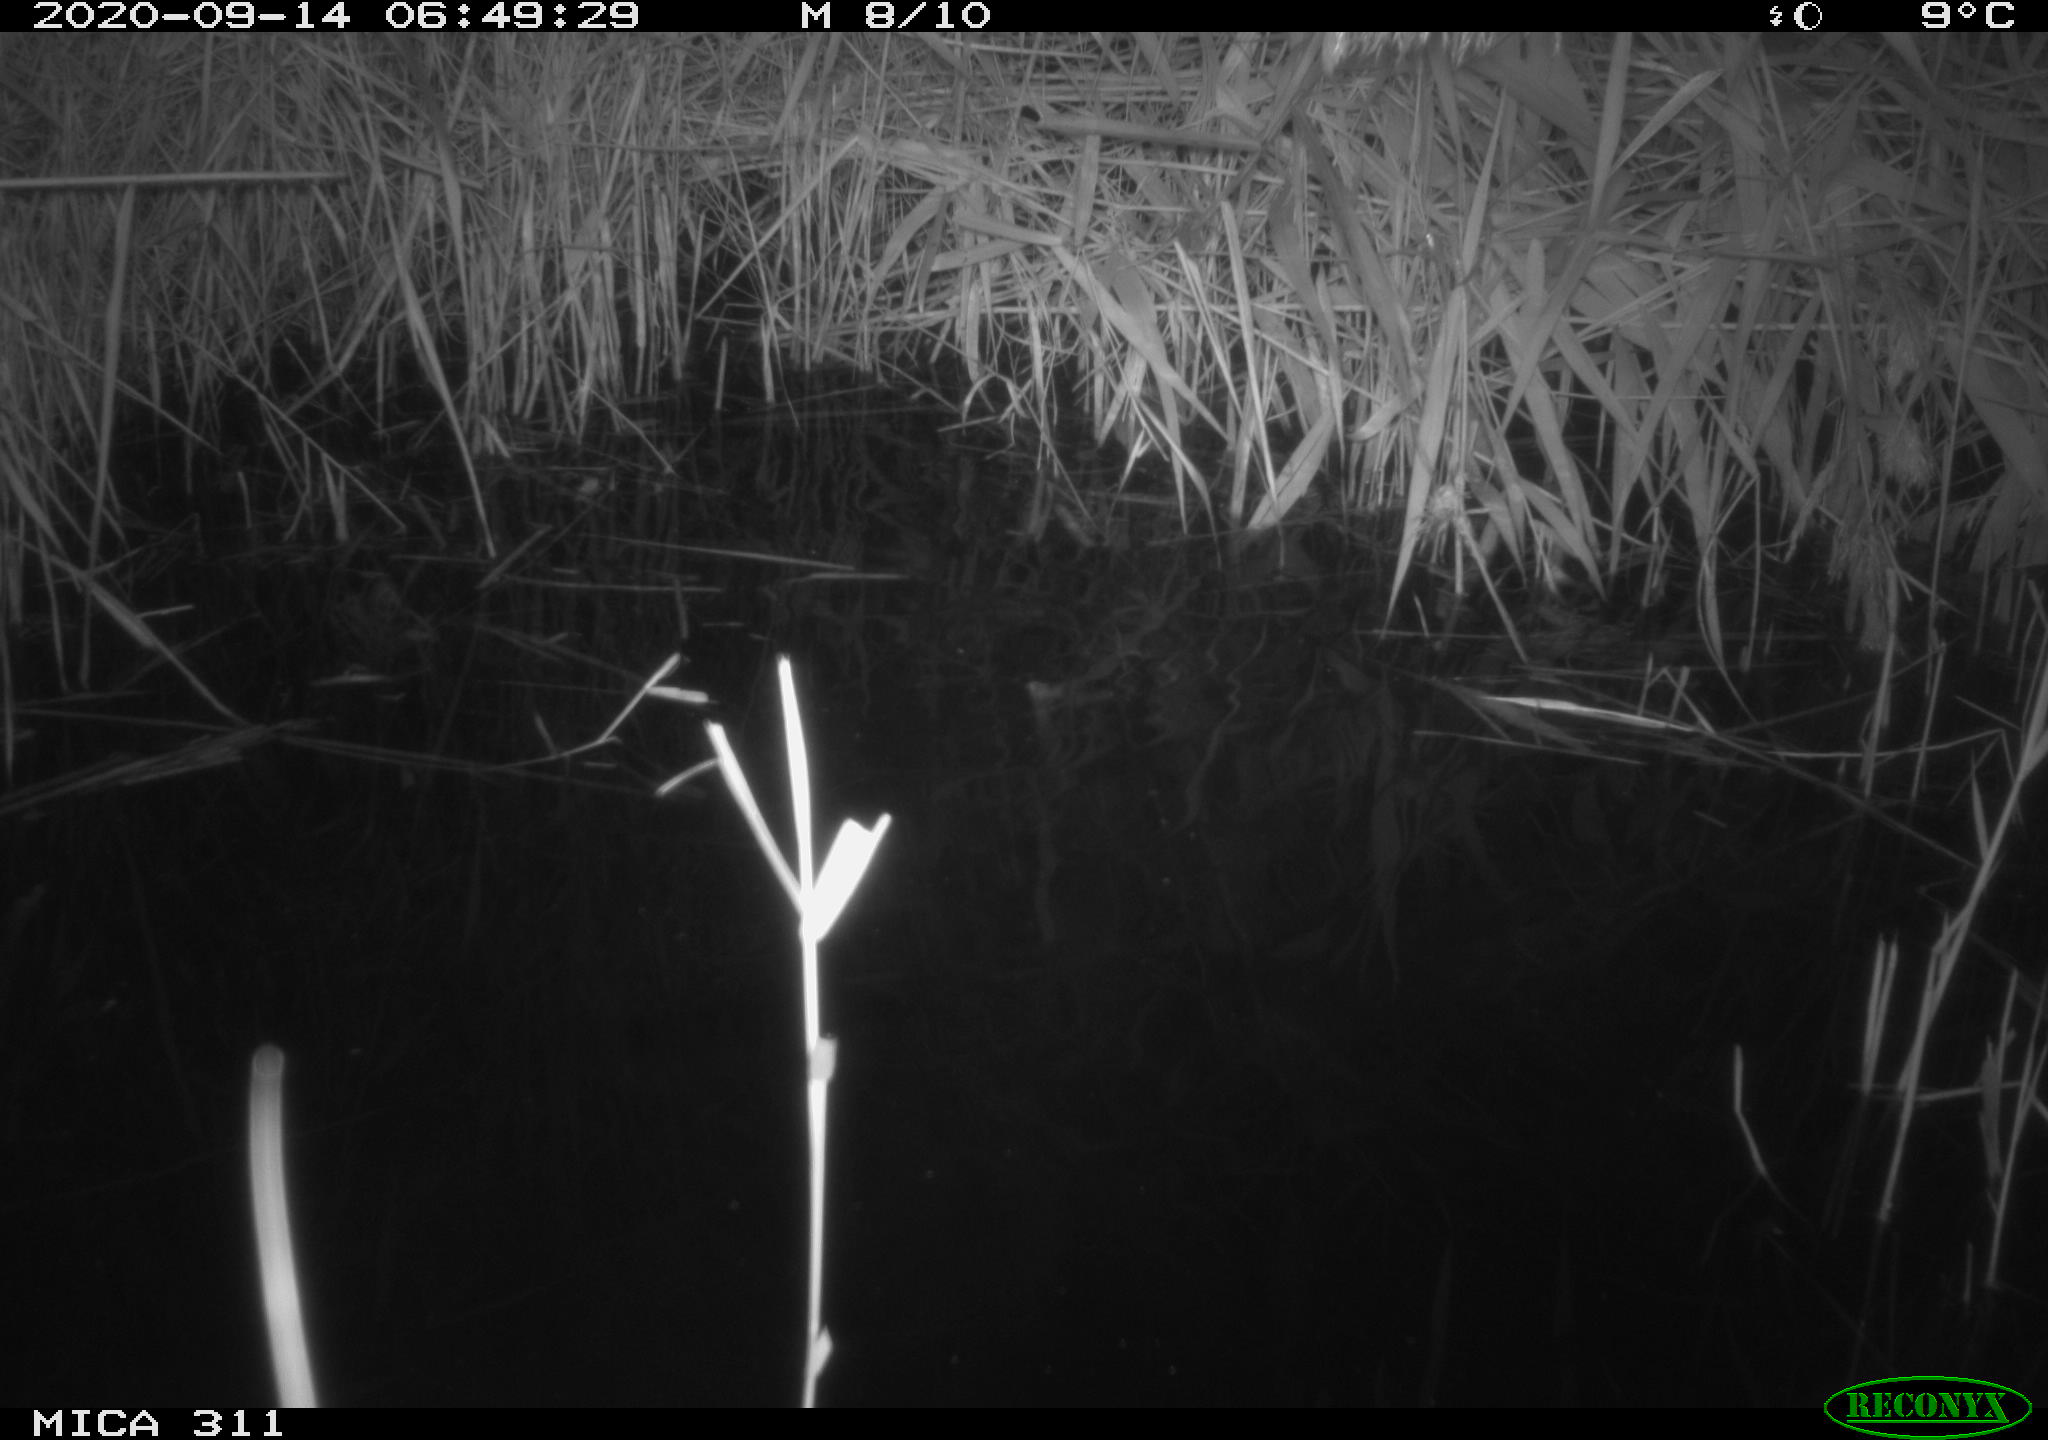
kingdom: Animalia
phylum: Chordata
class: Mammalia
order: Rodentia
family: Muridae
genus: Rattus
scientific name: Rattus norvegicus
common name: Brown rat
